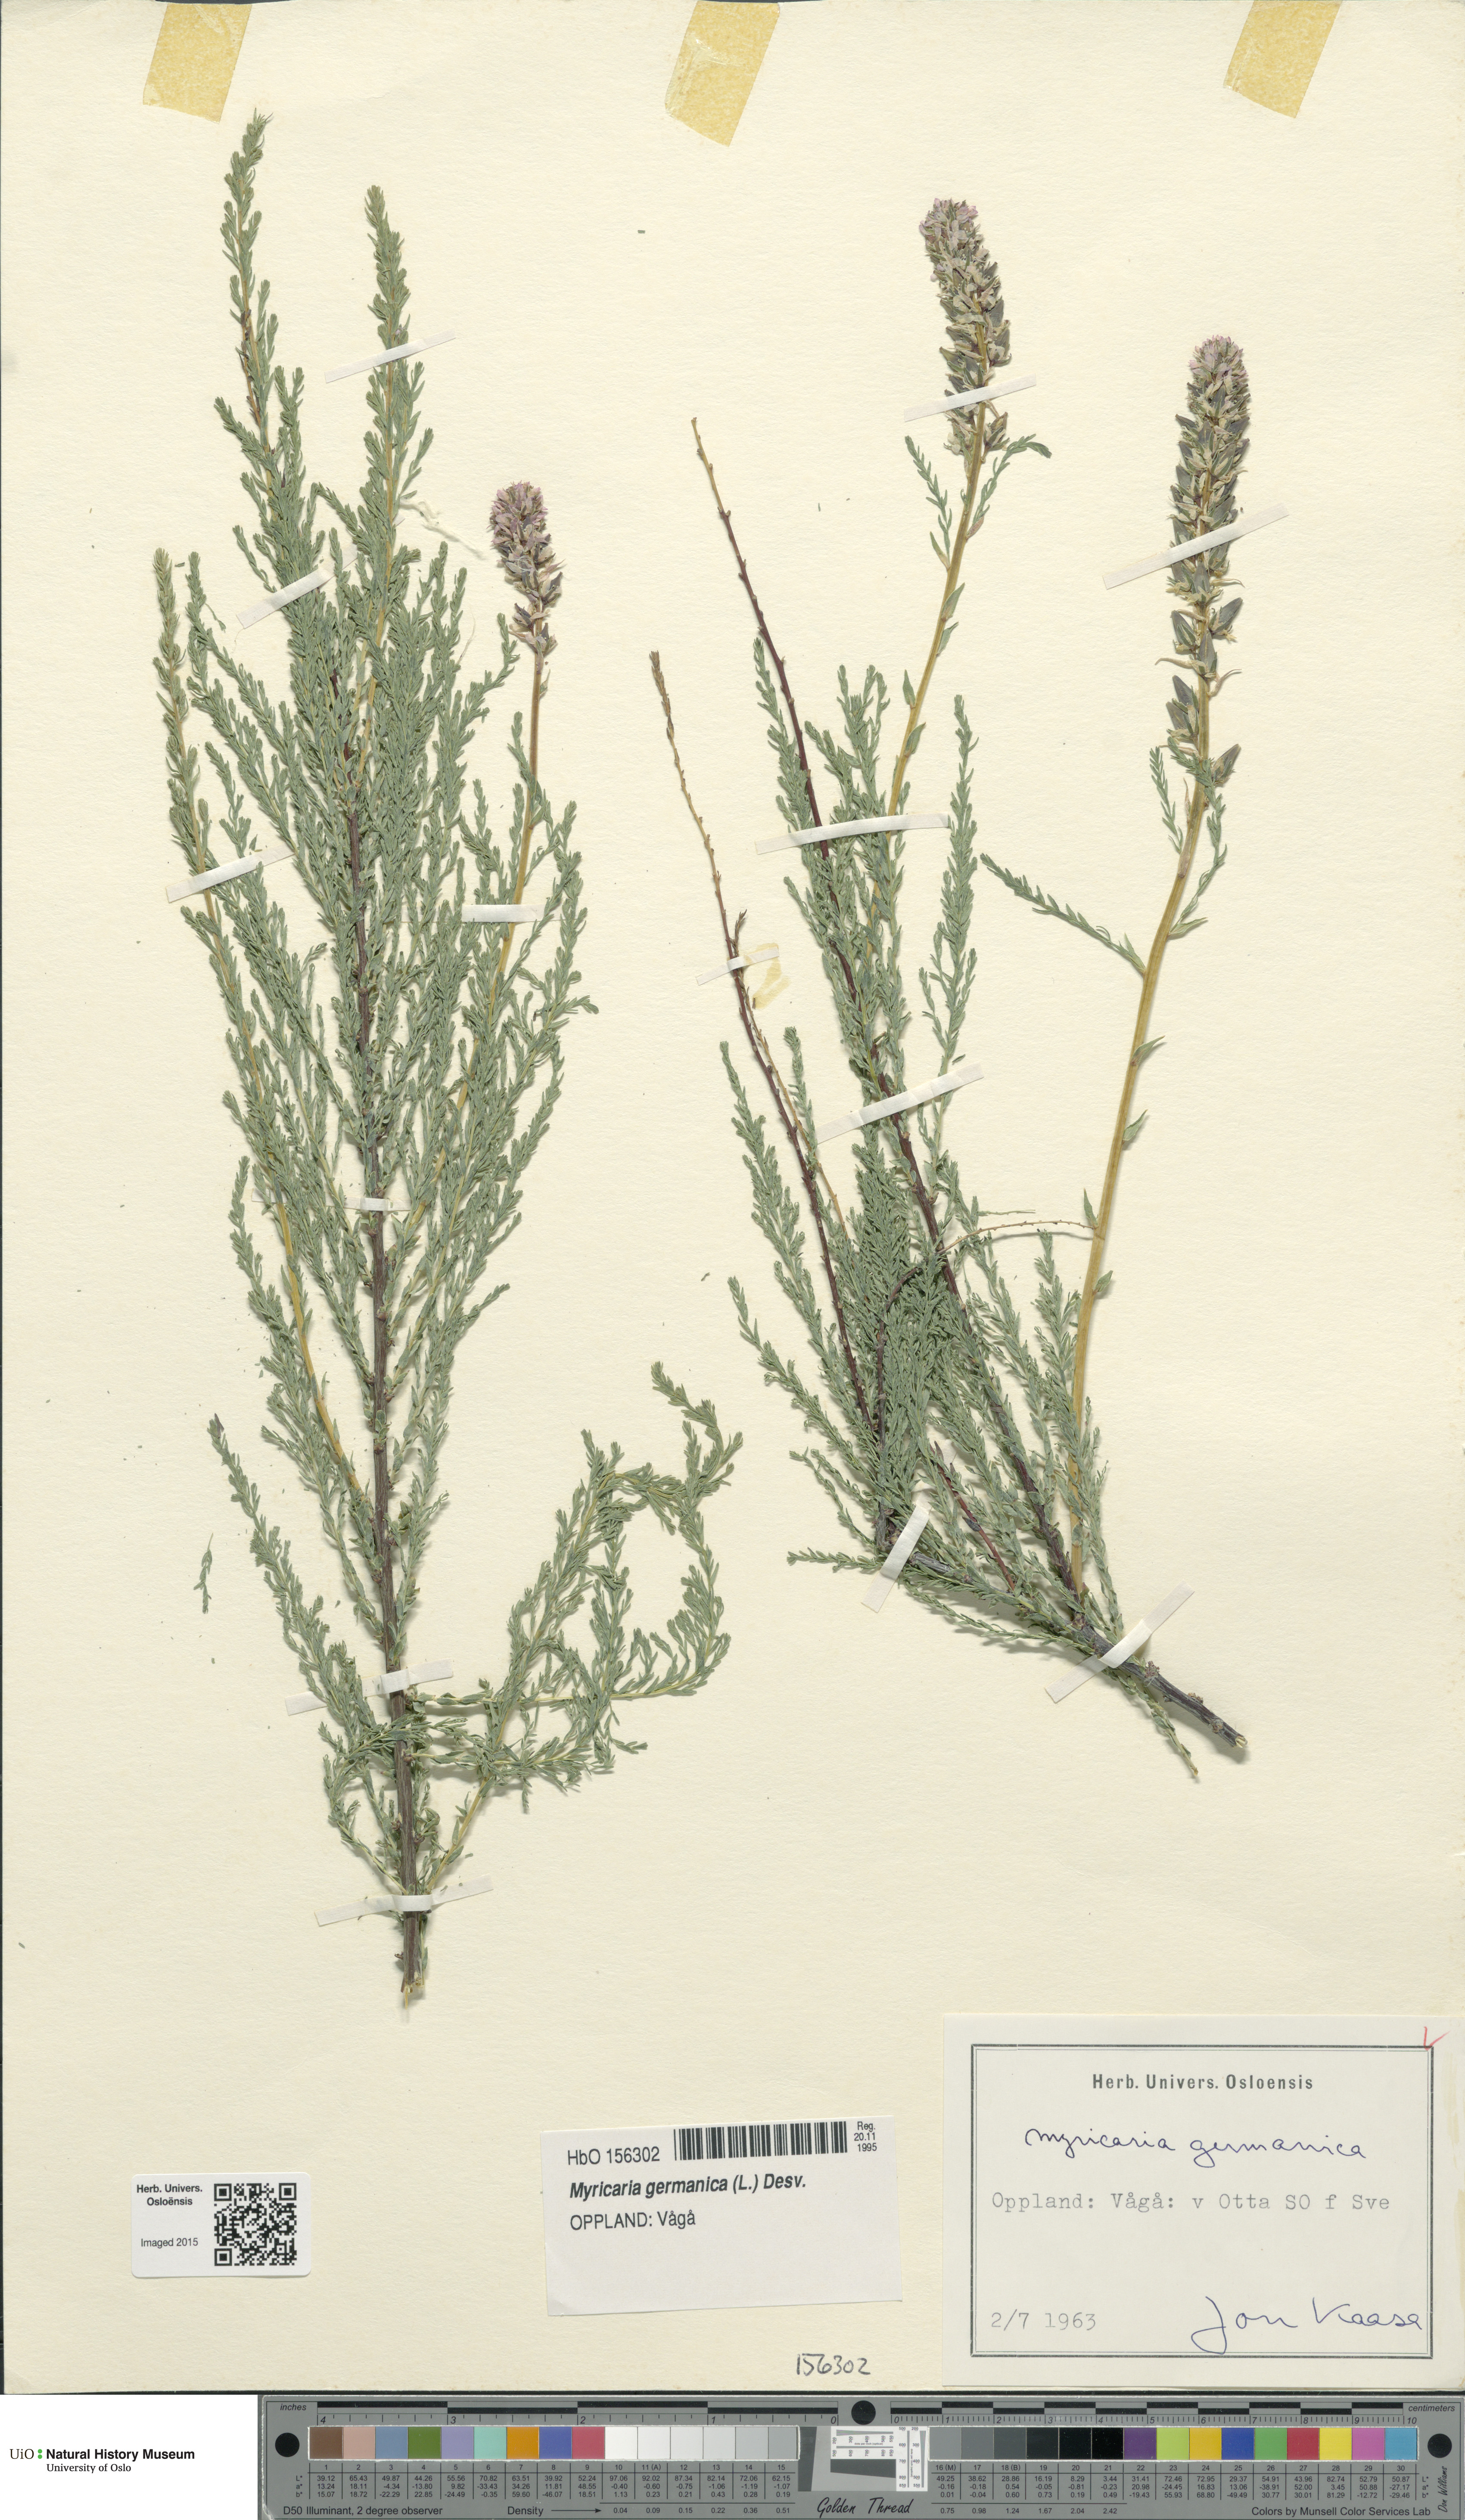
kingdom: Plantae
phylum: Tracheophyta
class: Magnoliopsida
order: Caryophyllales
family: Tamaricaceae
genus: Myricaria
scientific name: Myricaria germanica
